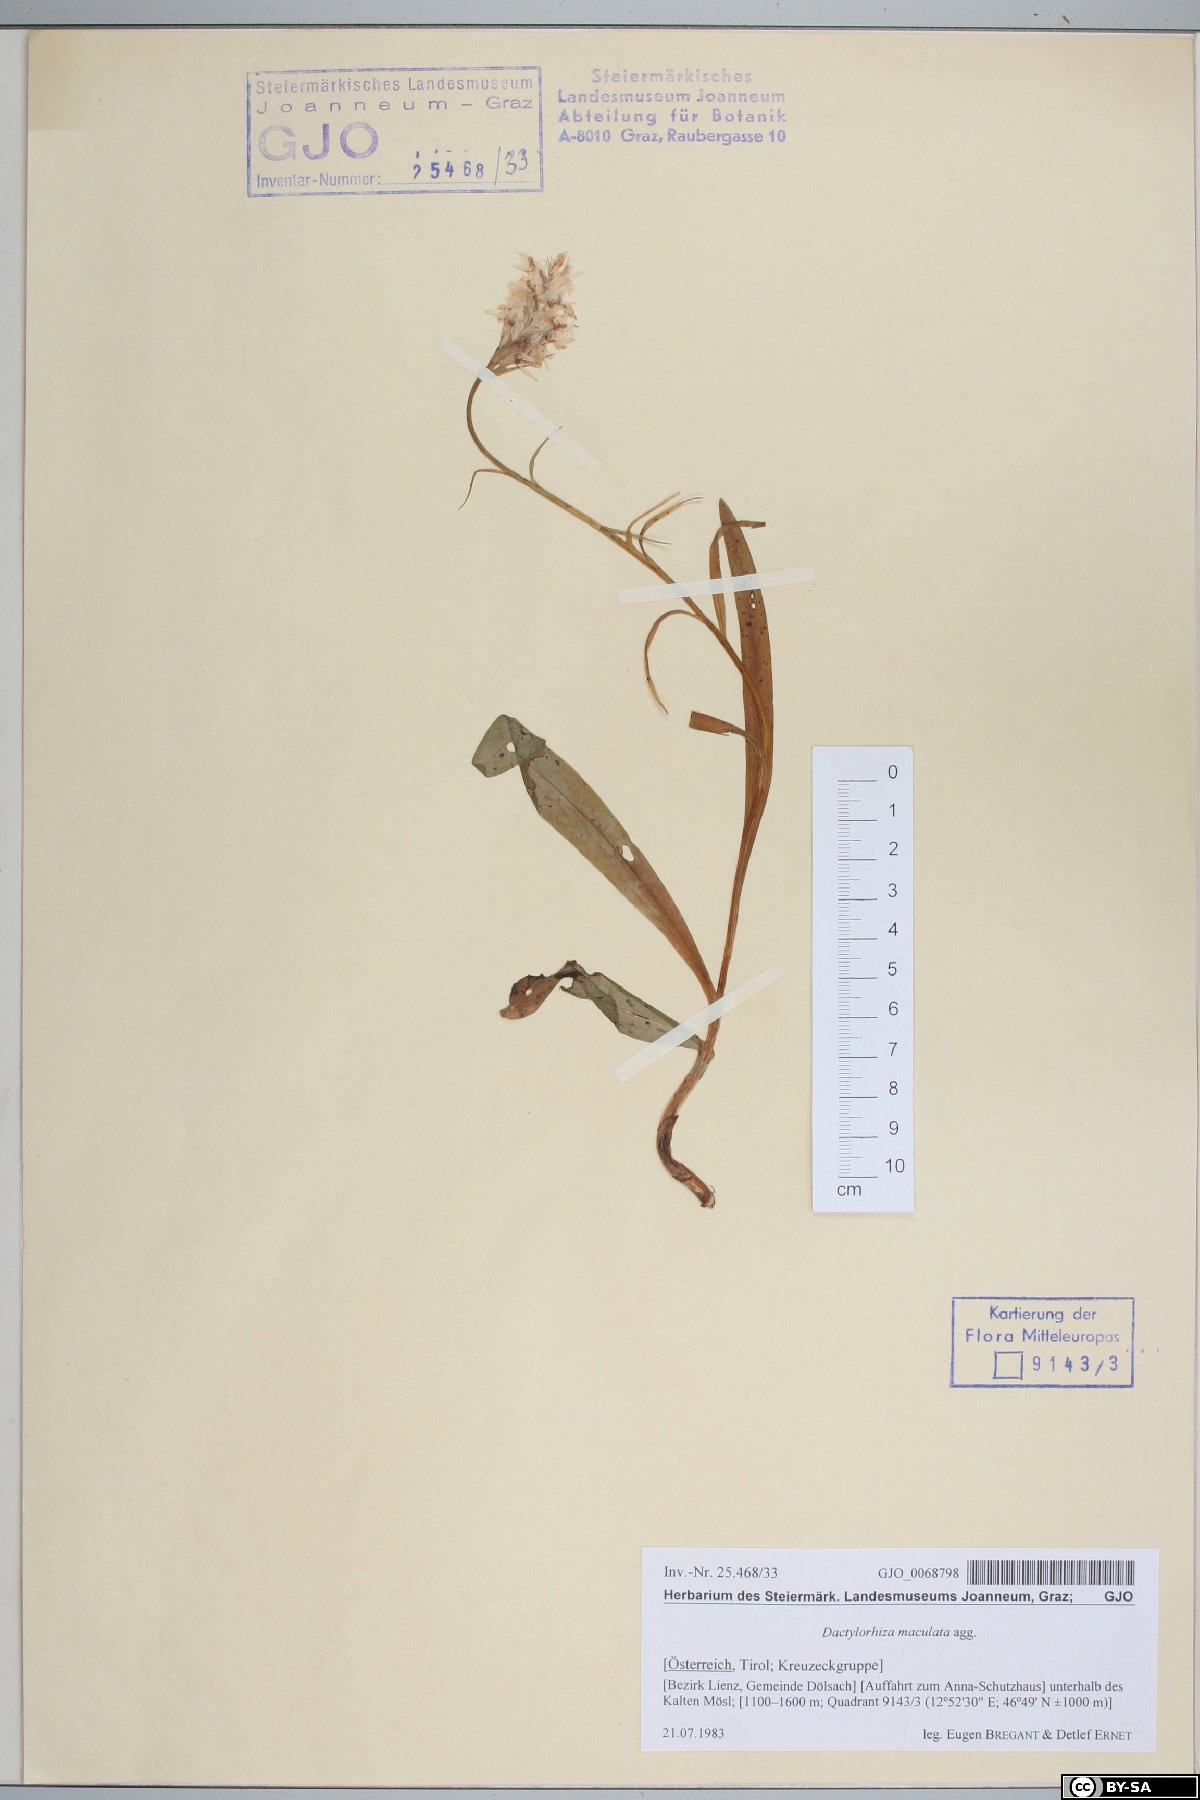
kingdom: Plantae
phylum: Tracheophyta
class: Liliopsida
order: Asparagales
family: Orchidaceae
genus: Dactylorhiza
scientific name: Dactylorhiza maculata
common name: Heath spotted-orchid
